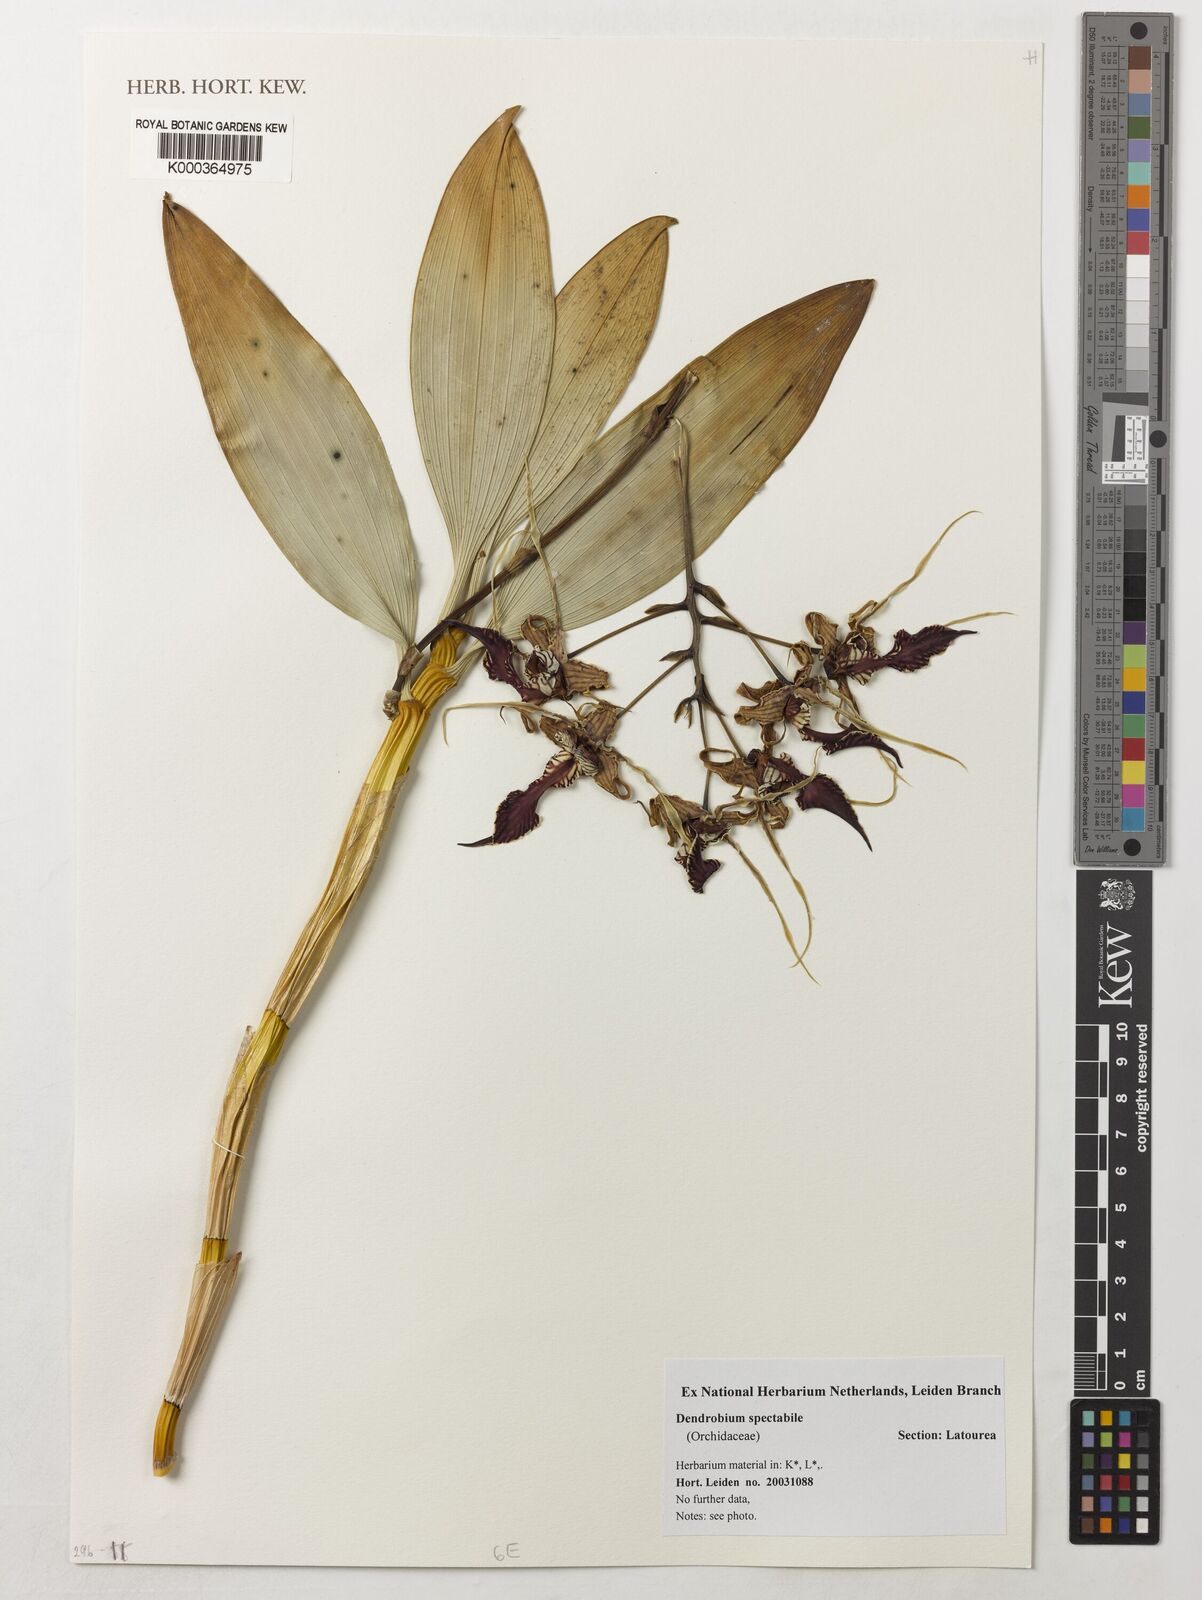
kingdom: Plantae
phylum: Tracheophyta
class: Liliopsida
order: Asparagales
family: Orchidaceae
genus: Dendrobium
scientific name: Dendrobium spectabile
